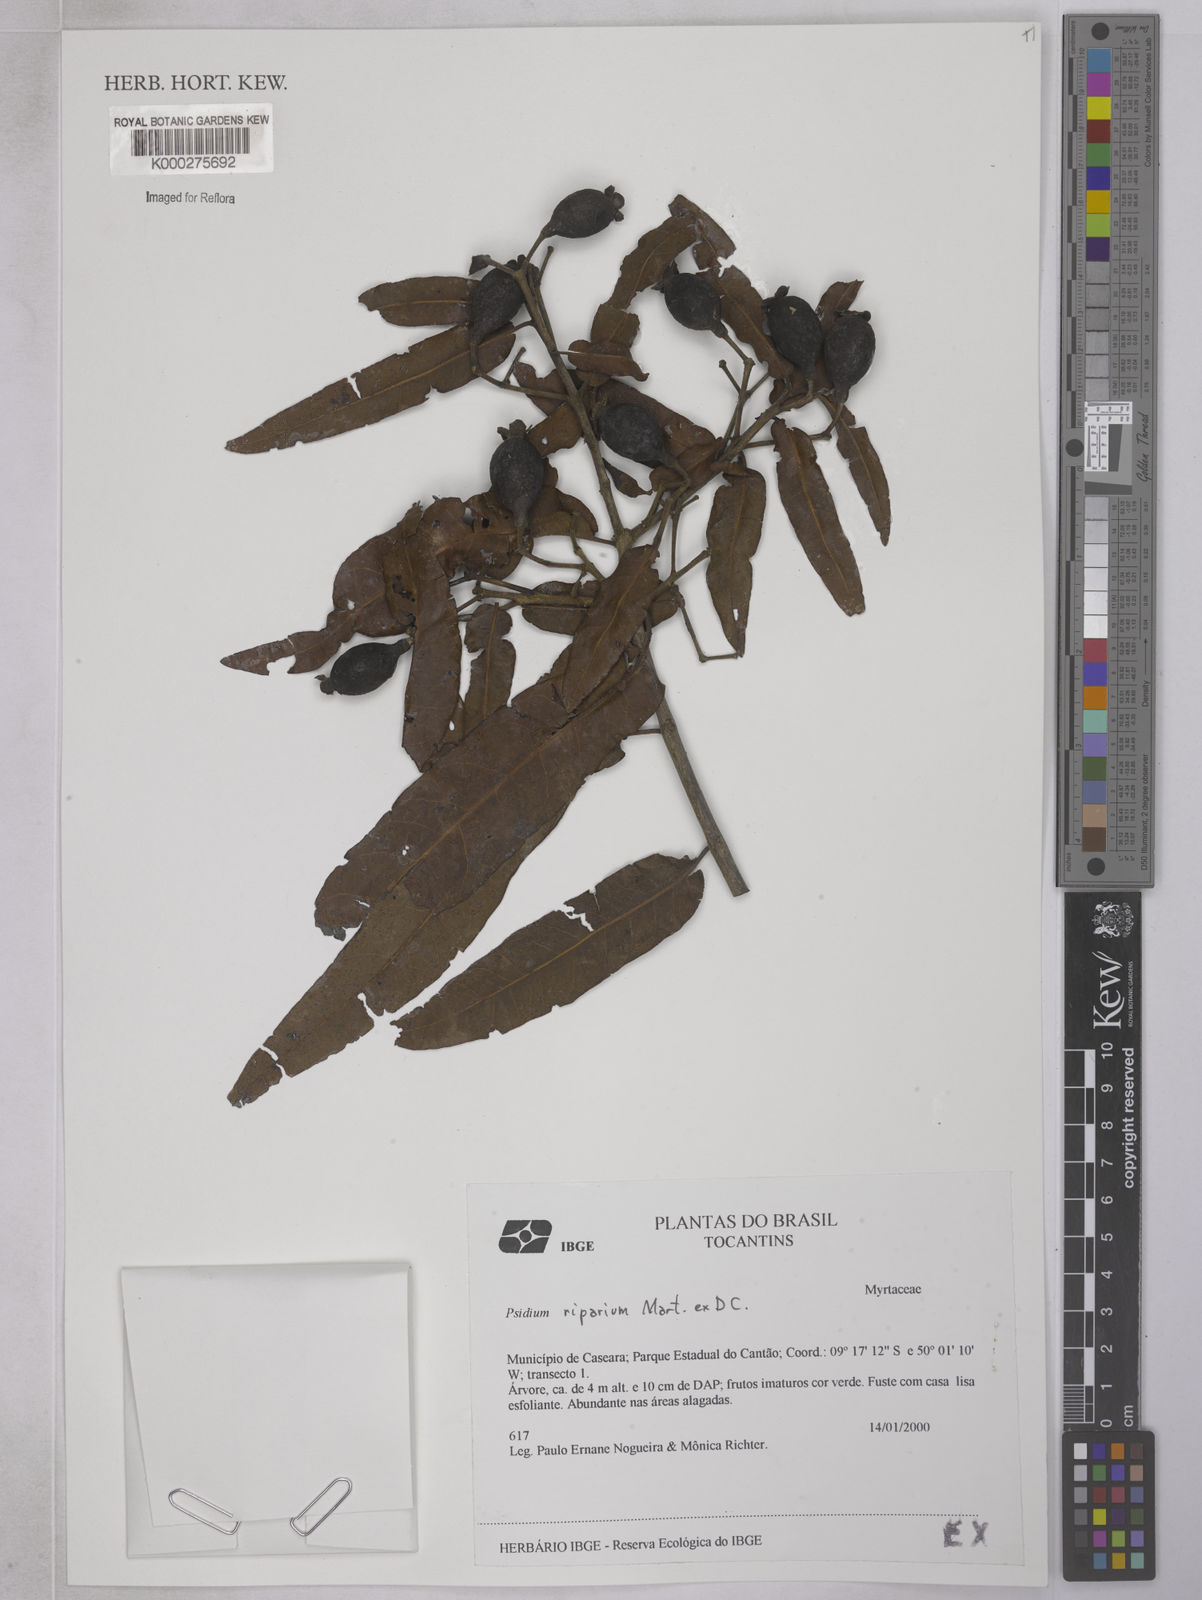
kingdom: Plantae
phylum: Tracheophyta
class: Magnoliopsida
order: Myrtales
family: Myrtaceae
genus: Psidium
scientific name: Psidium riparium
